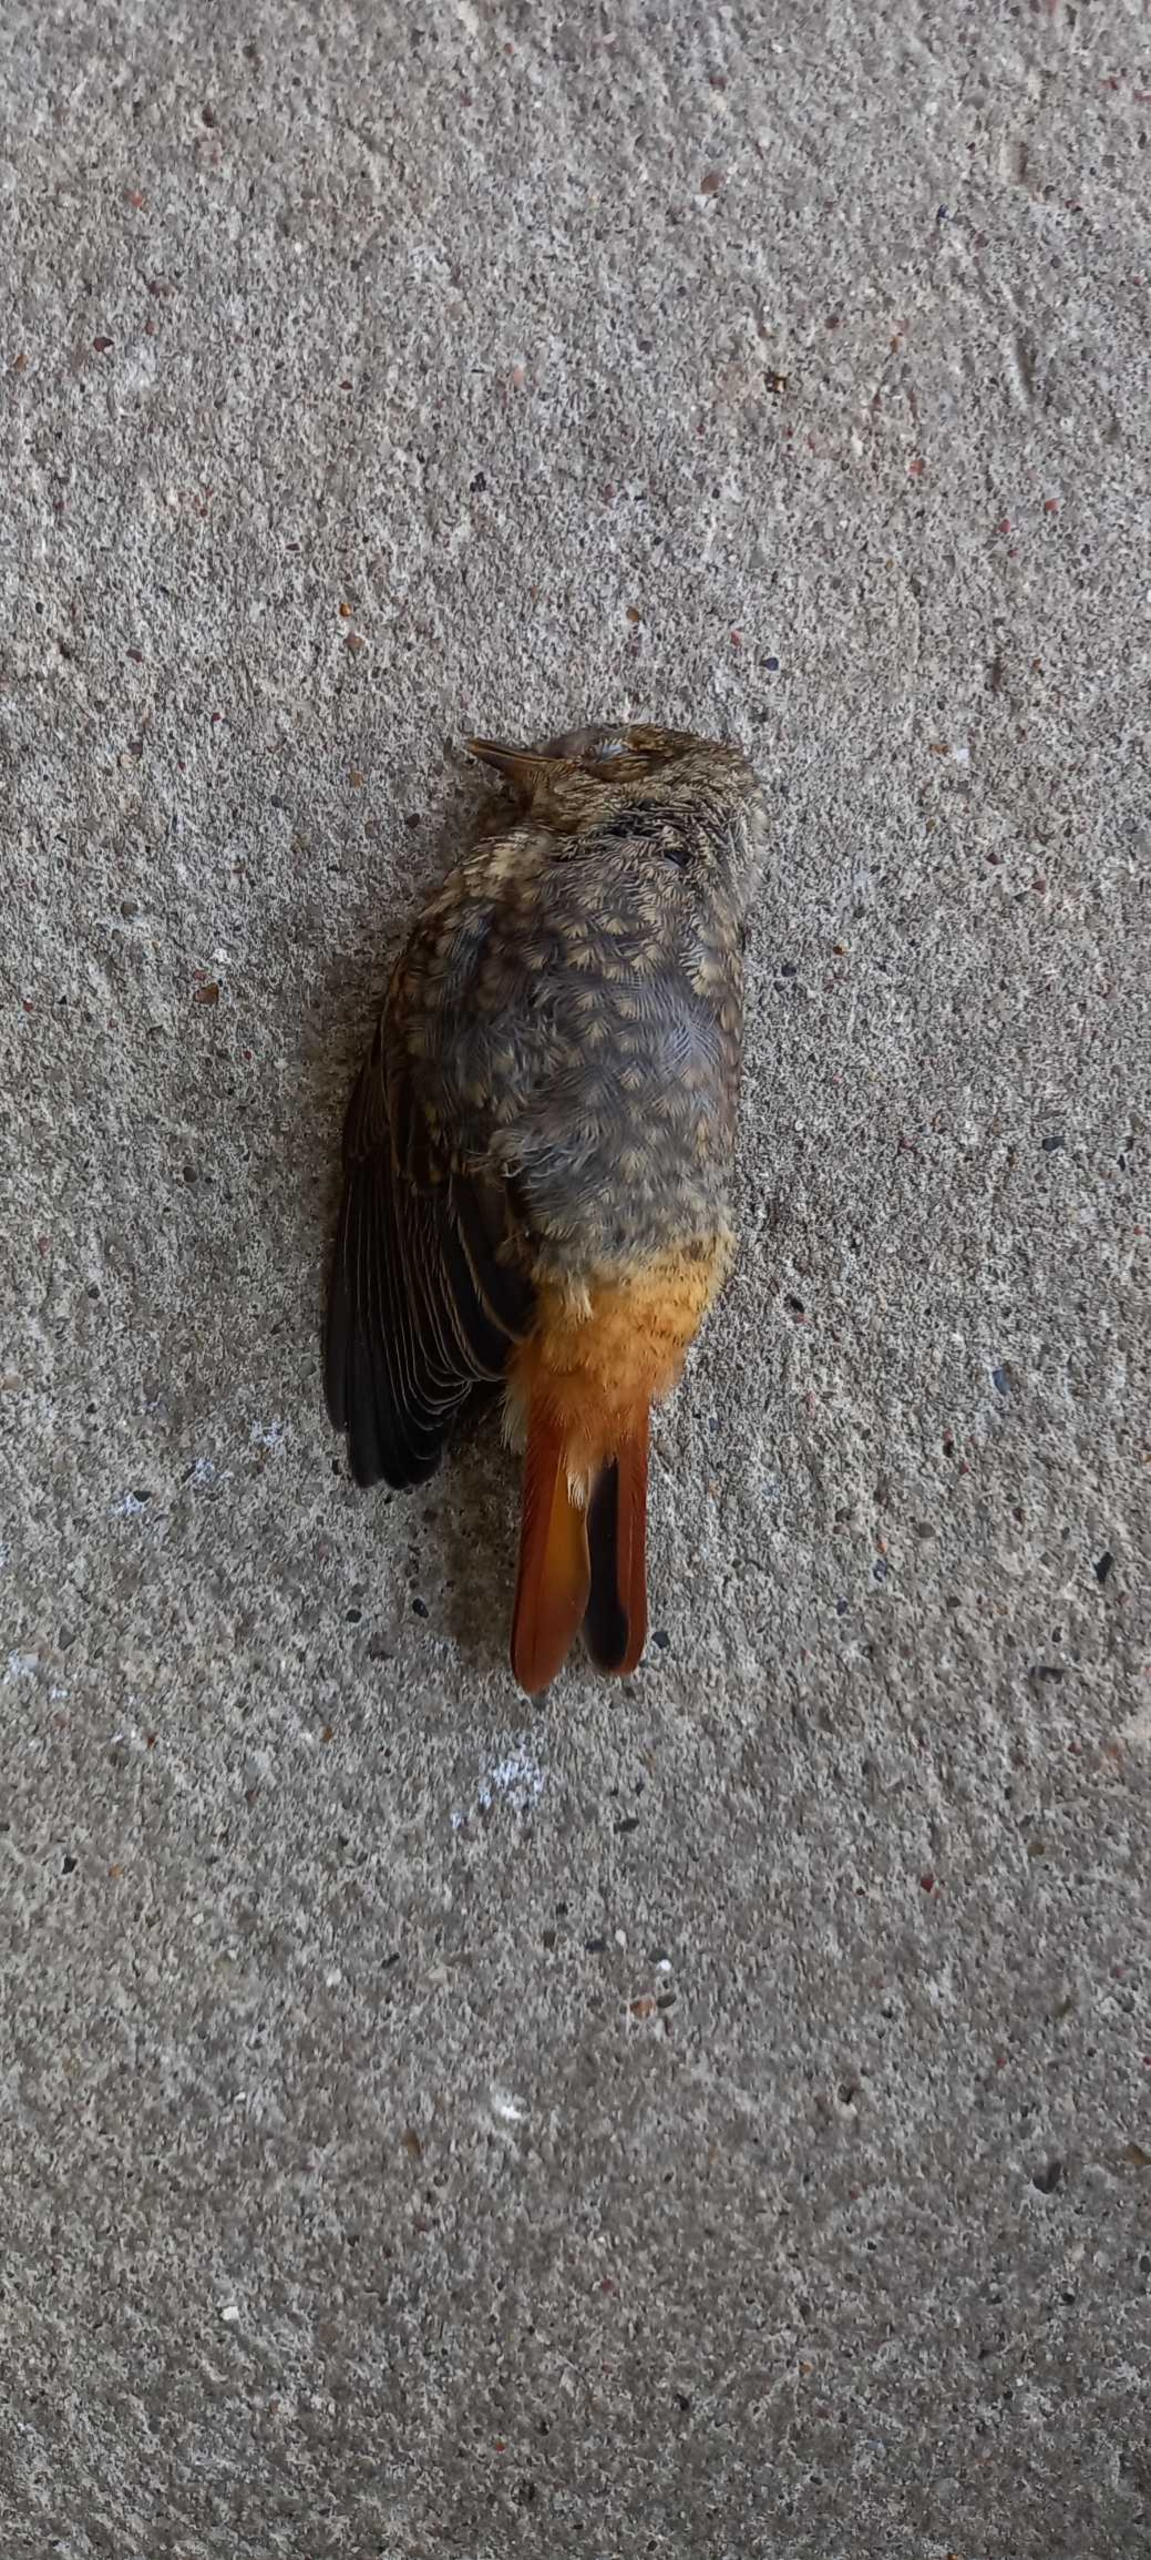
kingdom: Animalia
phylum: Chordata
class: Aves
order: Passeriformes
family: Muscicapidae
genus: Phoenicurus
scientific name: Phoenicurus ochruros
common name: Husrødstjert
